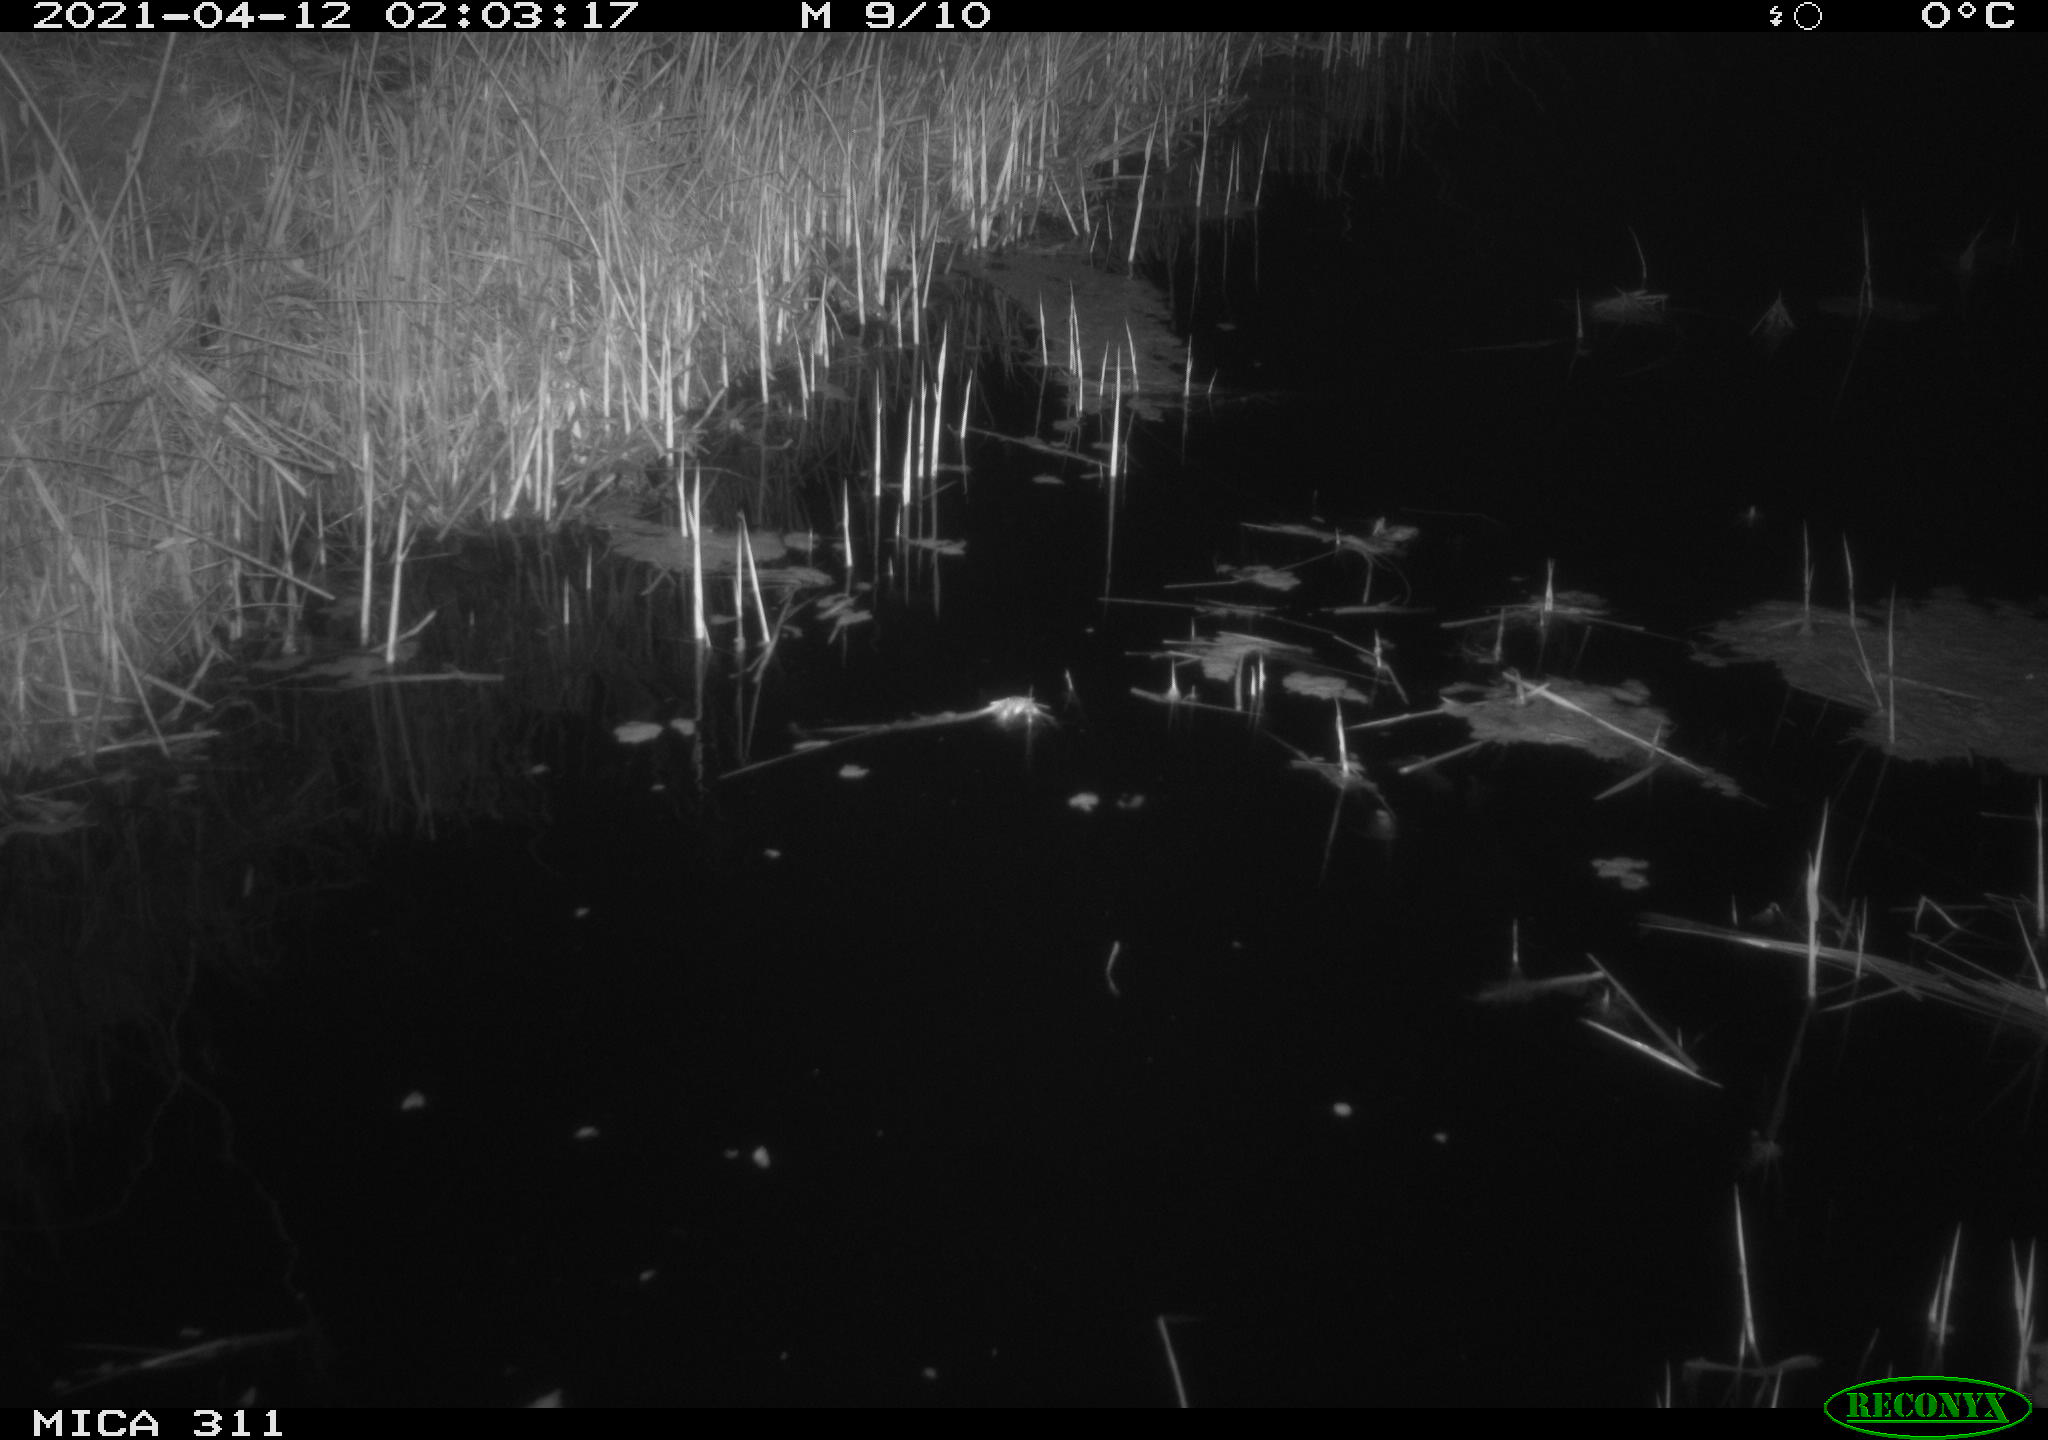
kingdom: Animalia
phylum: Chordata
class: Mammalia
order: Rodentia
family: Cricetidae
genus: Ondatra
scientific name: Ondatra zibethicus
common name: Muskrat
